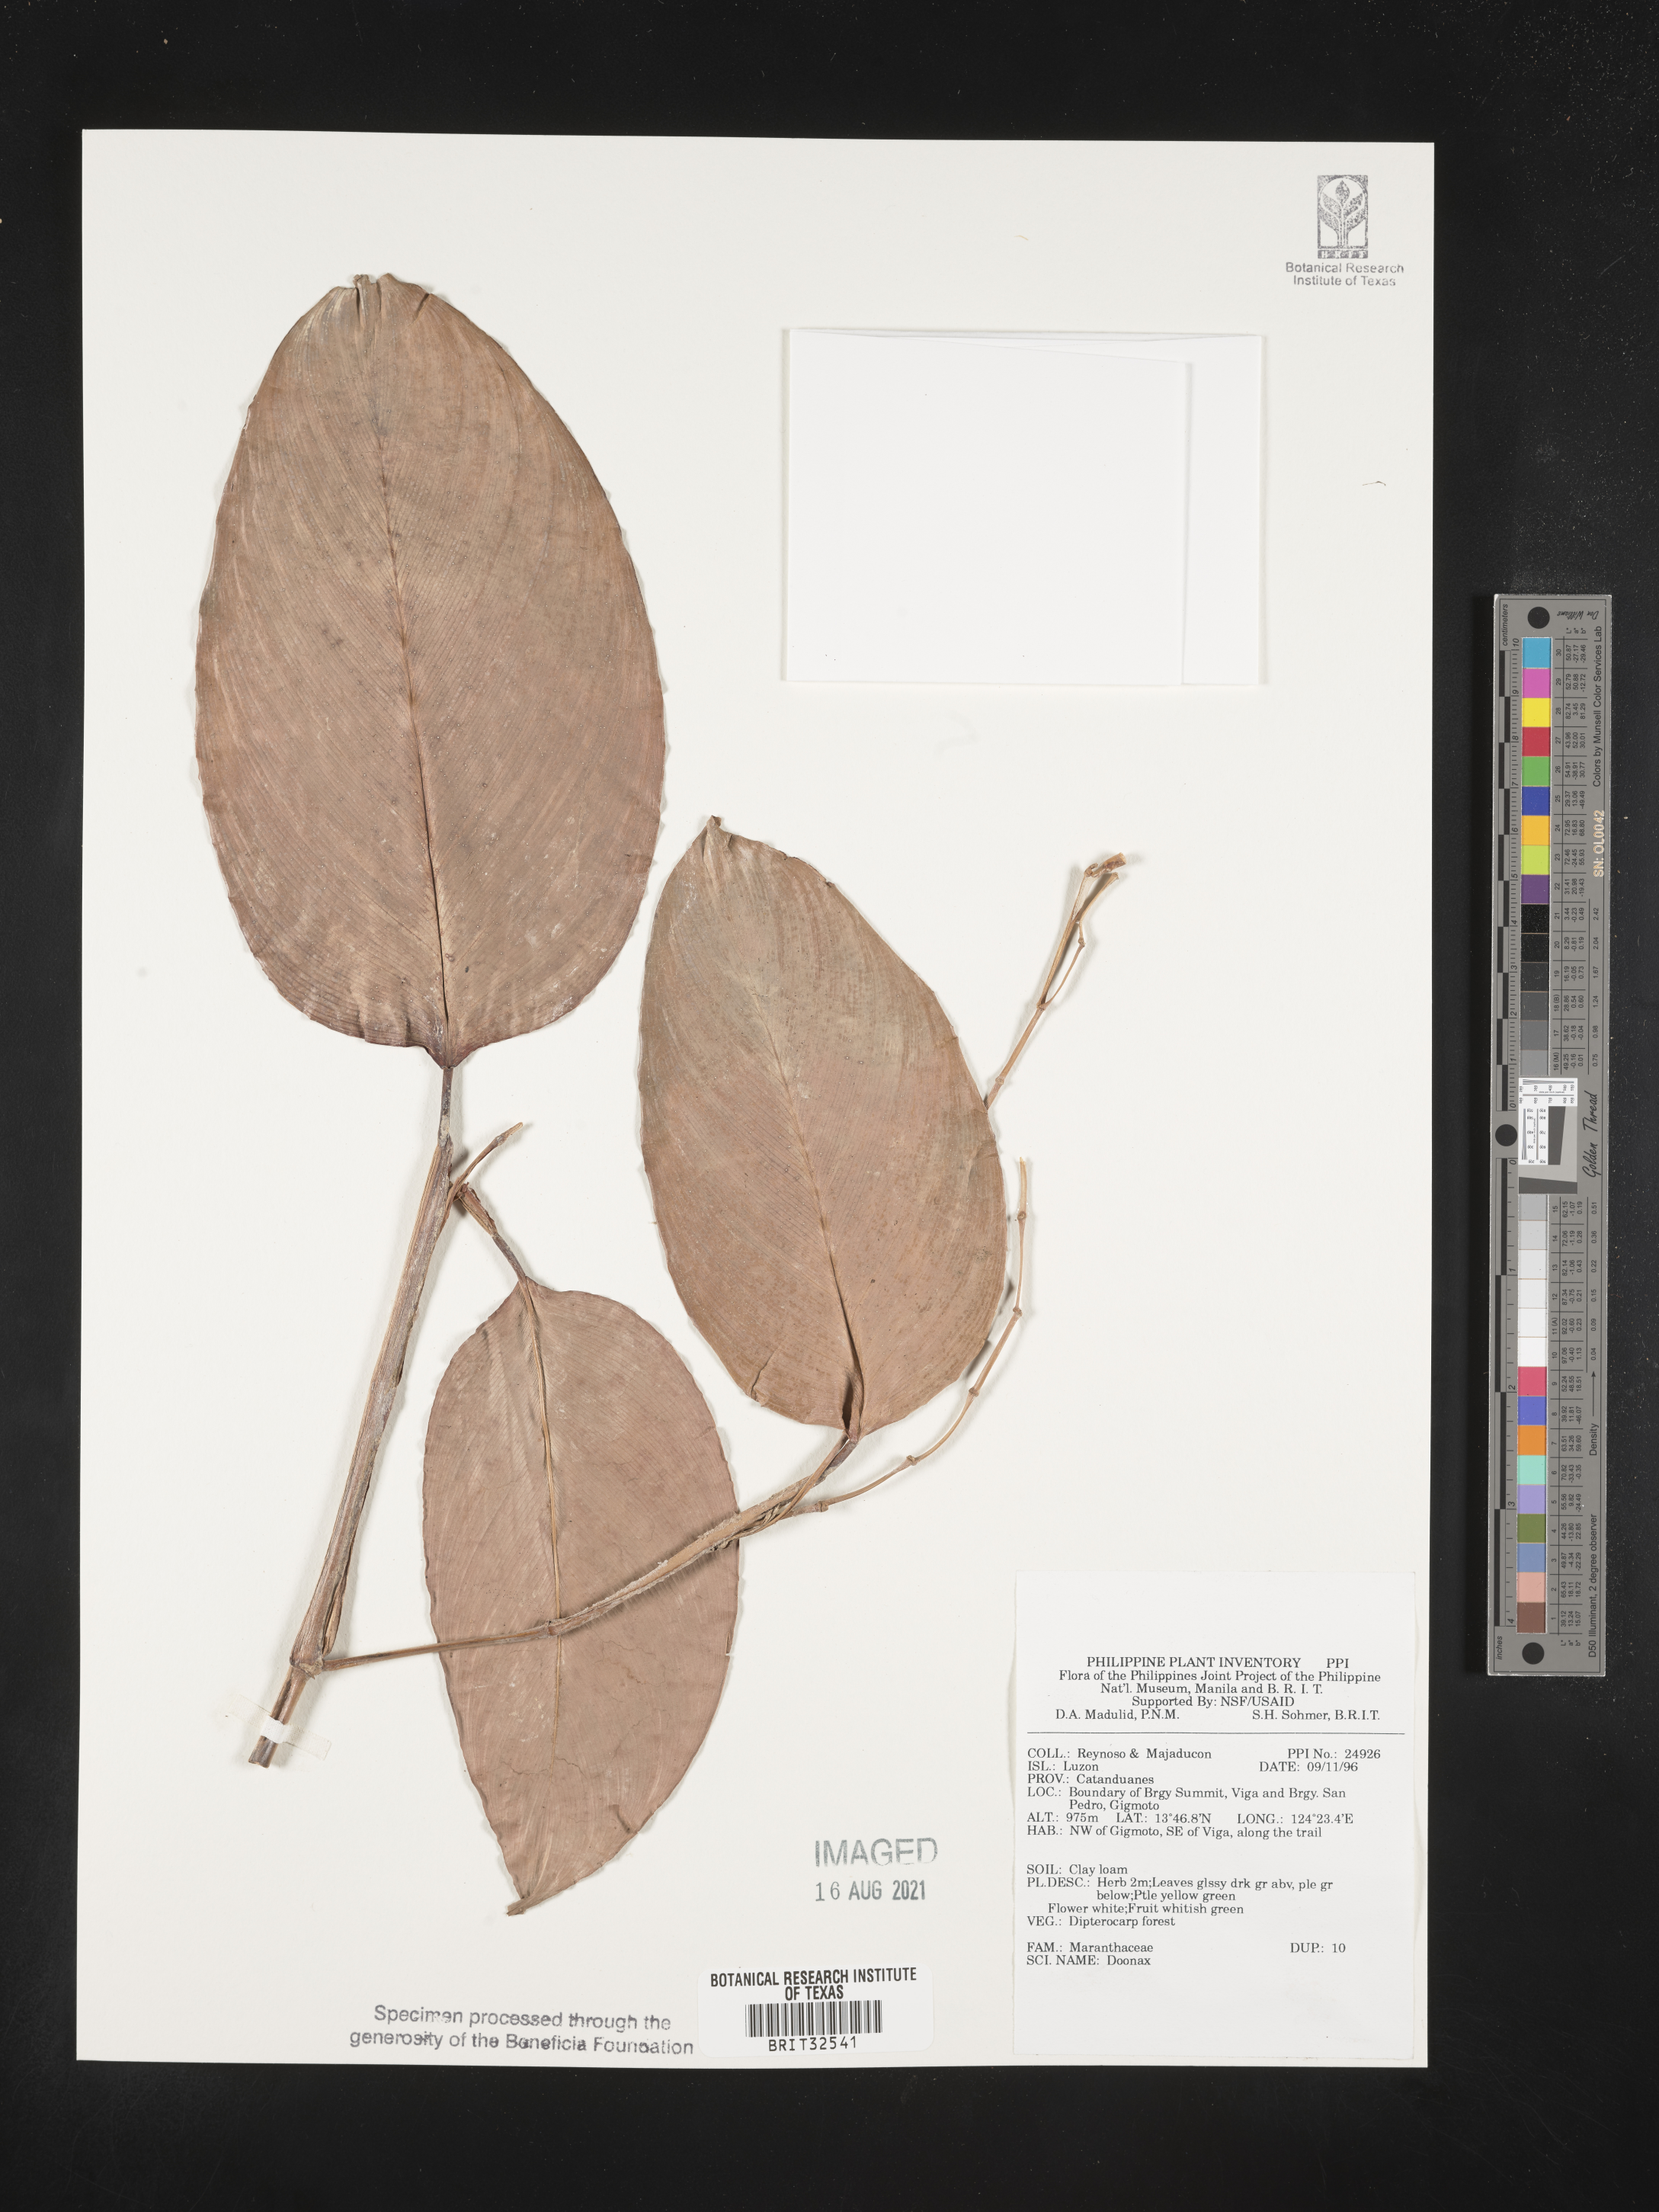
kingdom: Plantae
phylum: Tracheophyta
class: Liliopsida
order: Zingiberales
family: Marantaceae
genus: Donax
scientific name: Donax
